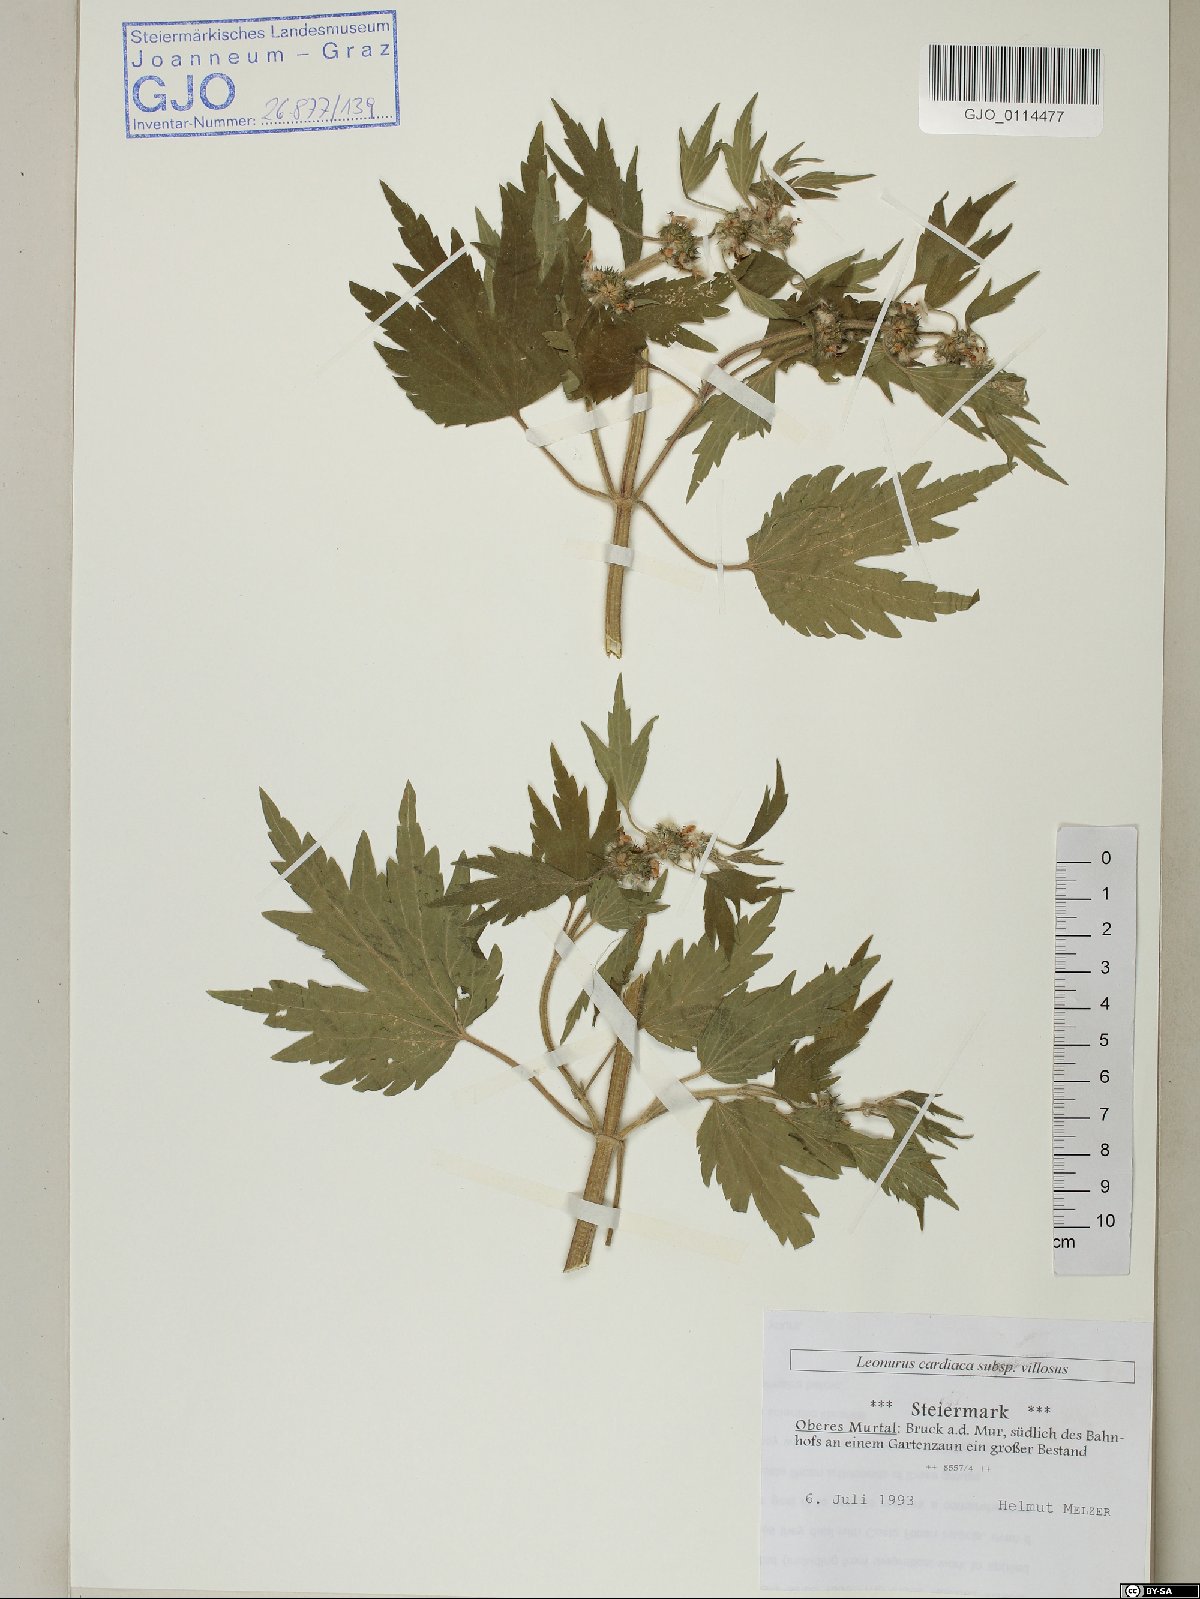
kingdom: Plantae
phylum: Tracheophyta
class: Magnoliopsida
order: Lamiales
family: Lamiaceae
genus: Leonurus
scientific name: Leonurus quinquelobatus
